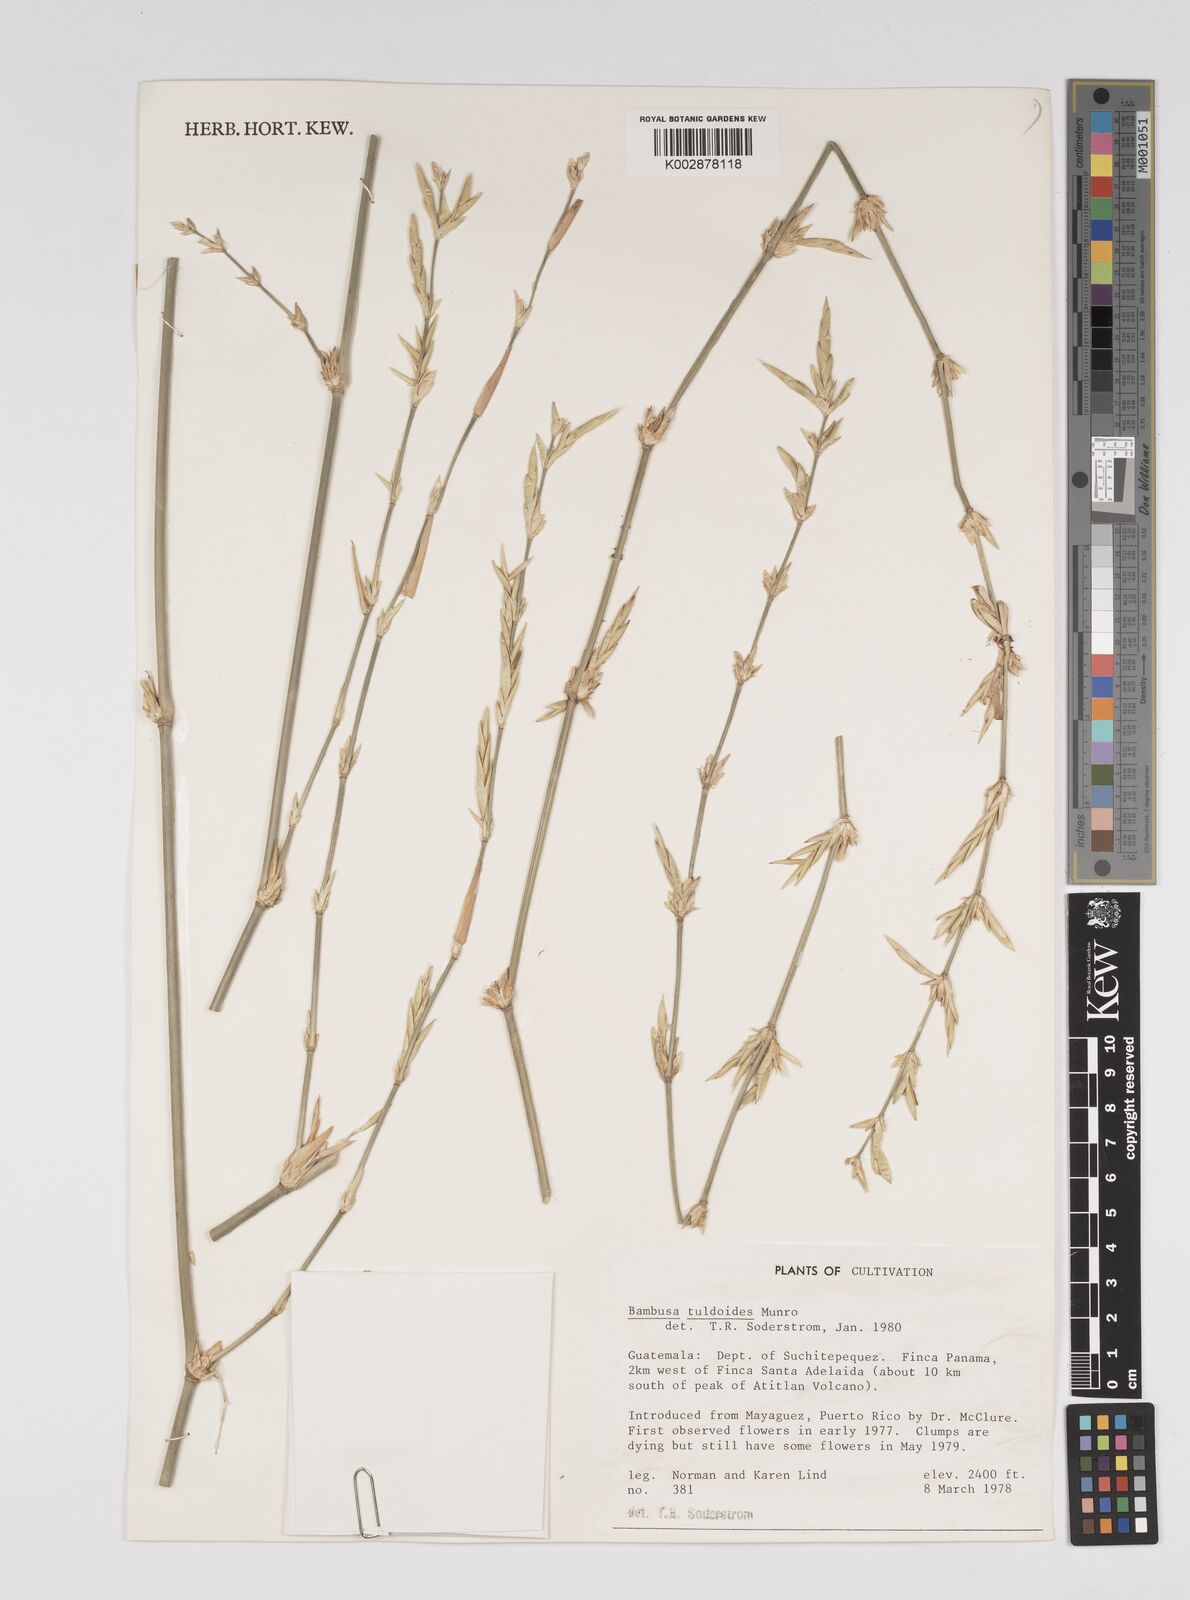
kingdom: Plantae
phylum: Tracheophyta
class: Liliopsida
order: Poales
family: Poaceae
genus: Bambusa
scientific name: Bambusa tuldoides
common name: Verdant bamboo
